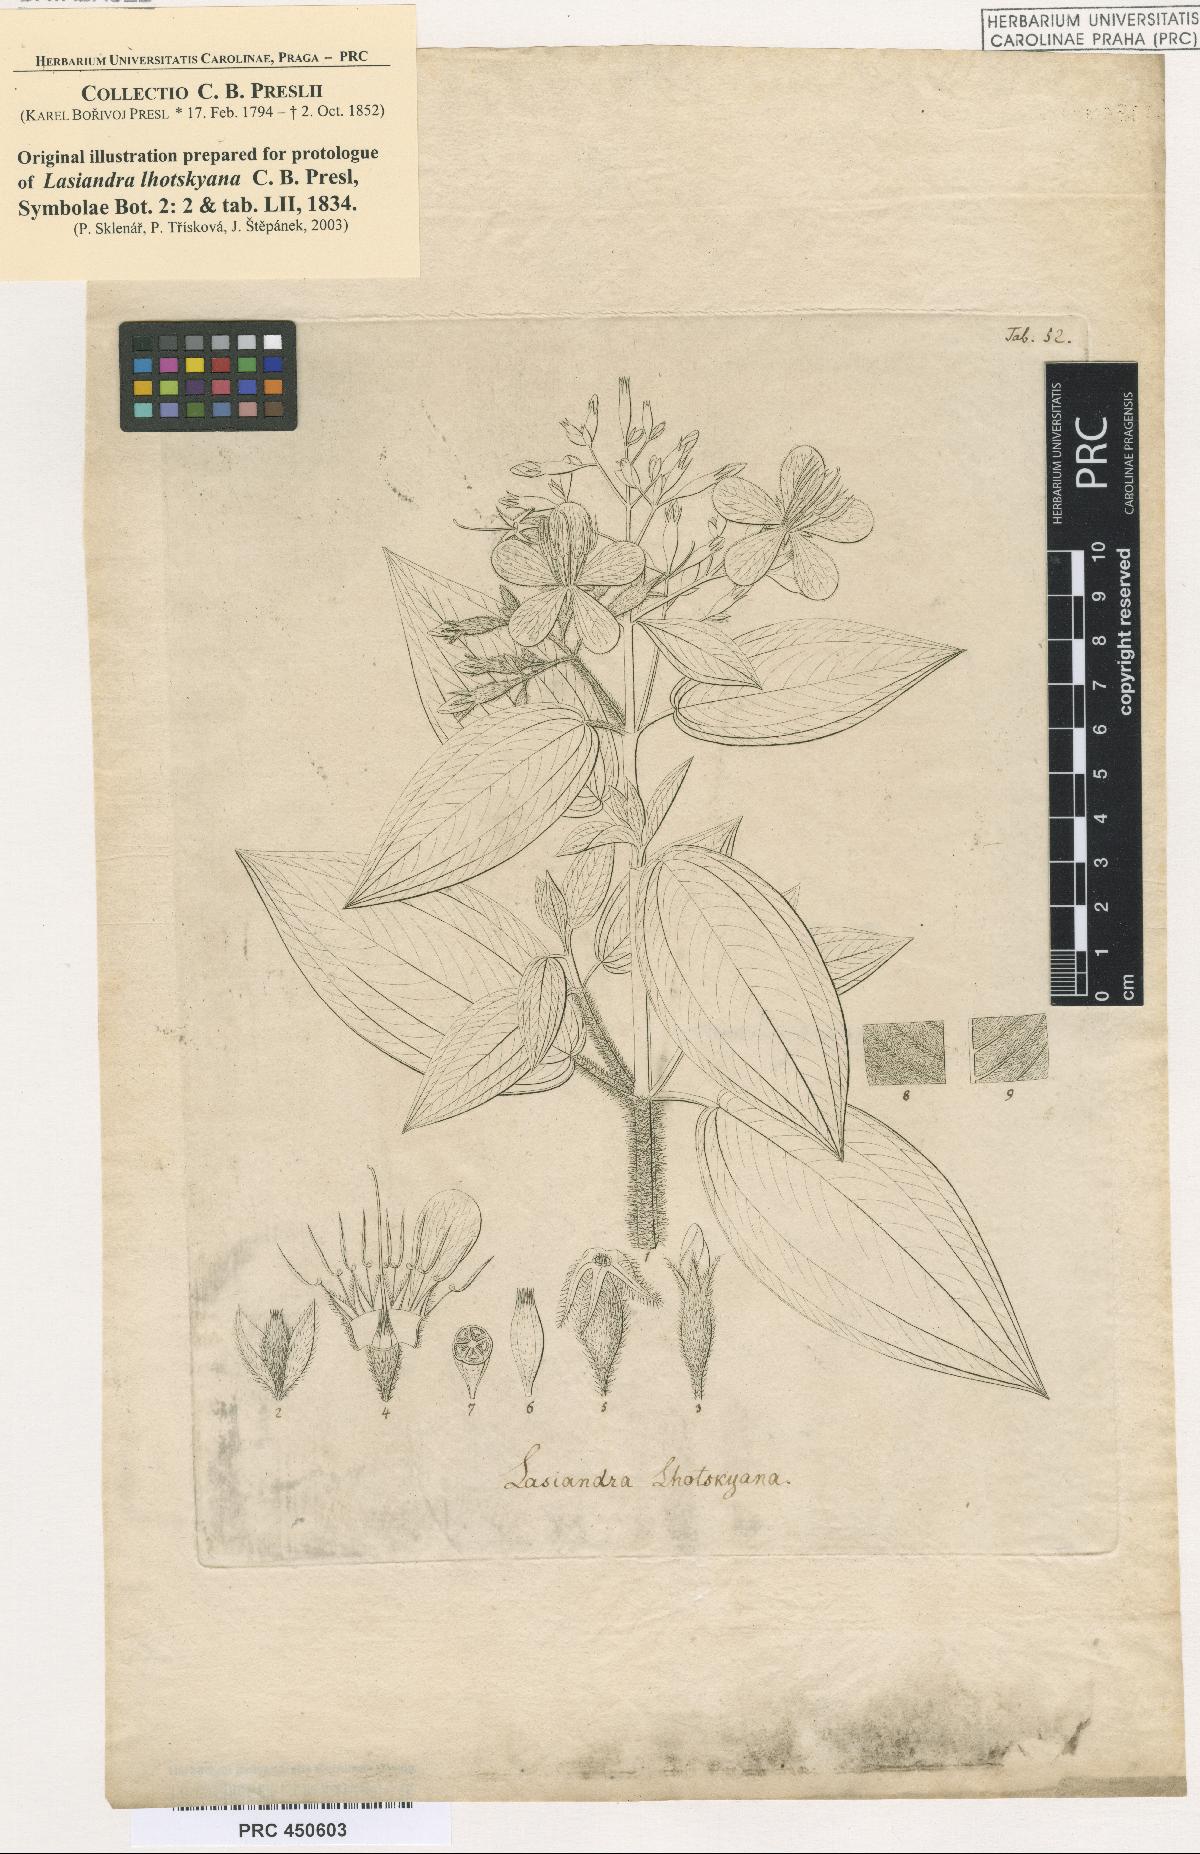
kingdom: Plantae
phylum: Tracheophyta
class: Magnoliopsida
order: Myrtales
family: Melastomataceae
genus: Chaetogastra
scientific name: Chaetogastra lhotskyana
